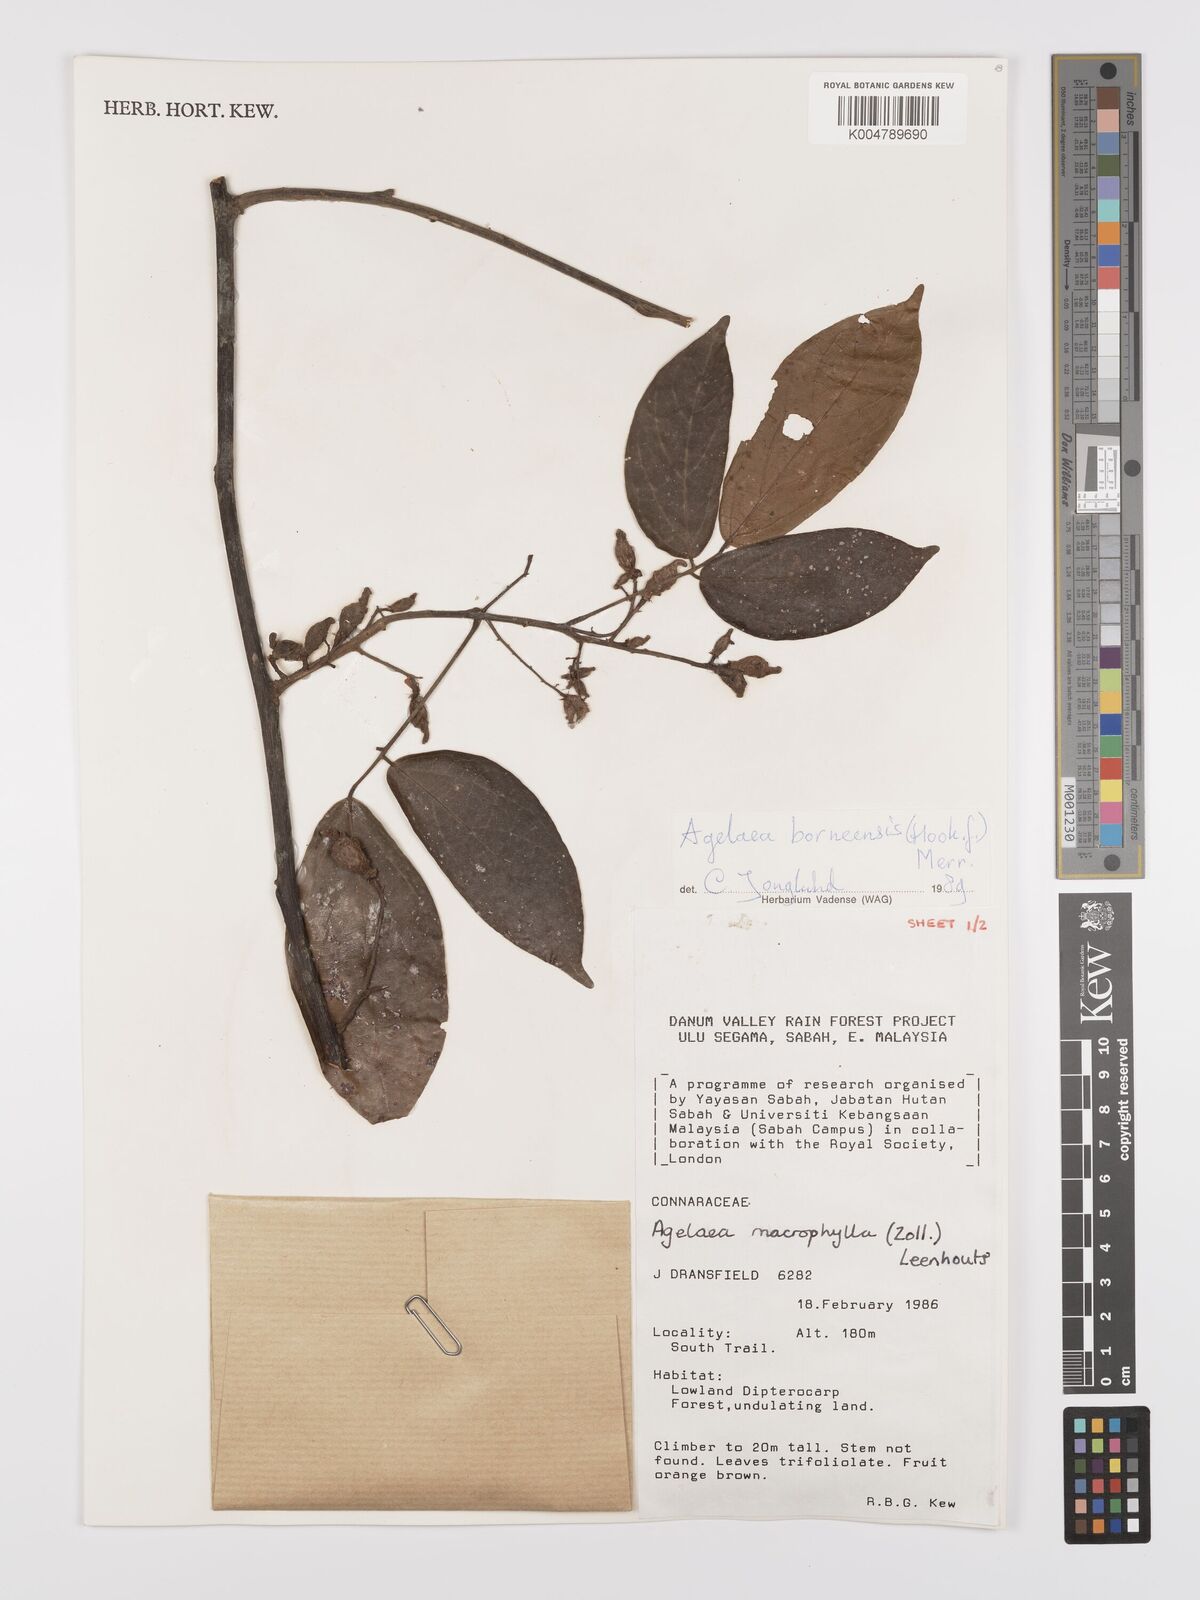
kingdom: Plantae
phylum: Tracheophyta
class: Magnoliopsida
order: Oxalidales
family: Connaraceae
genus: Agelaea
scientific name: Agelaea borneensis
